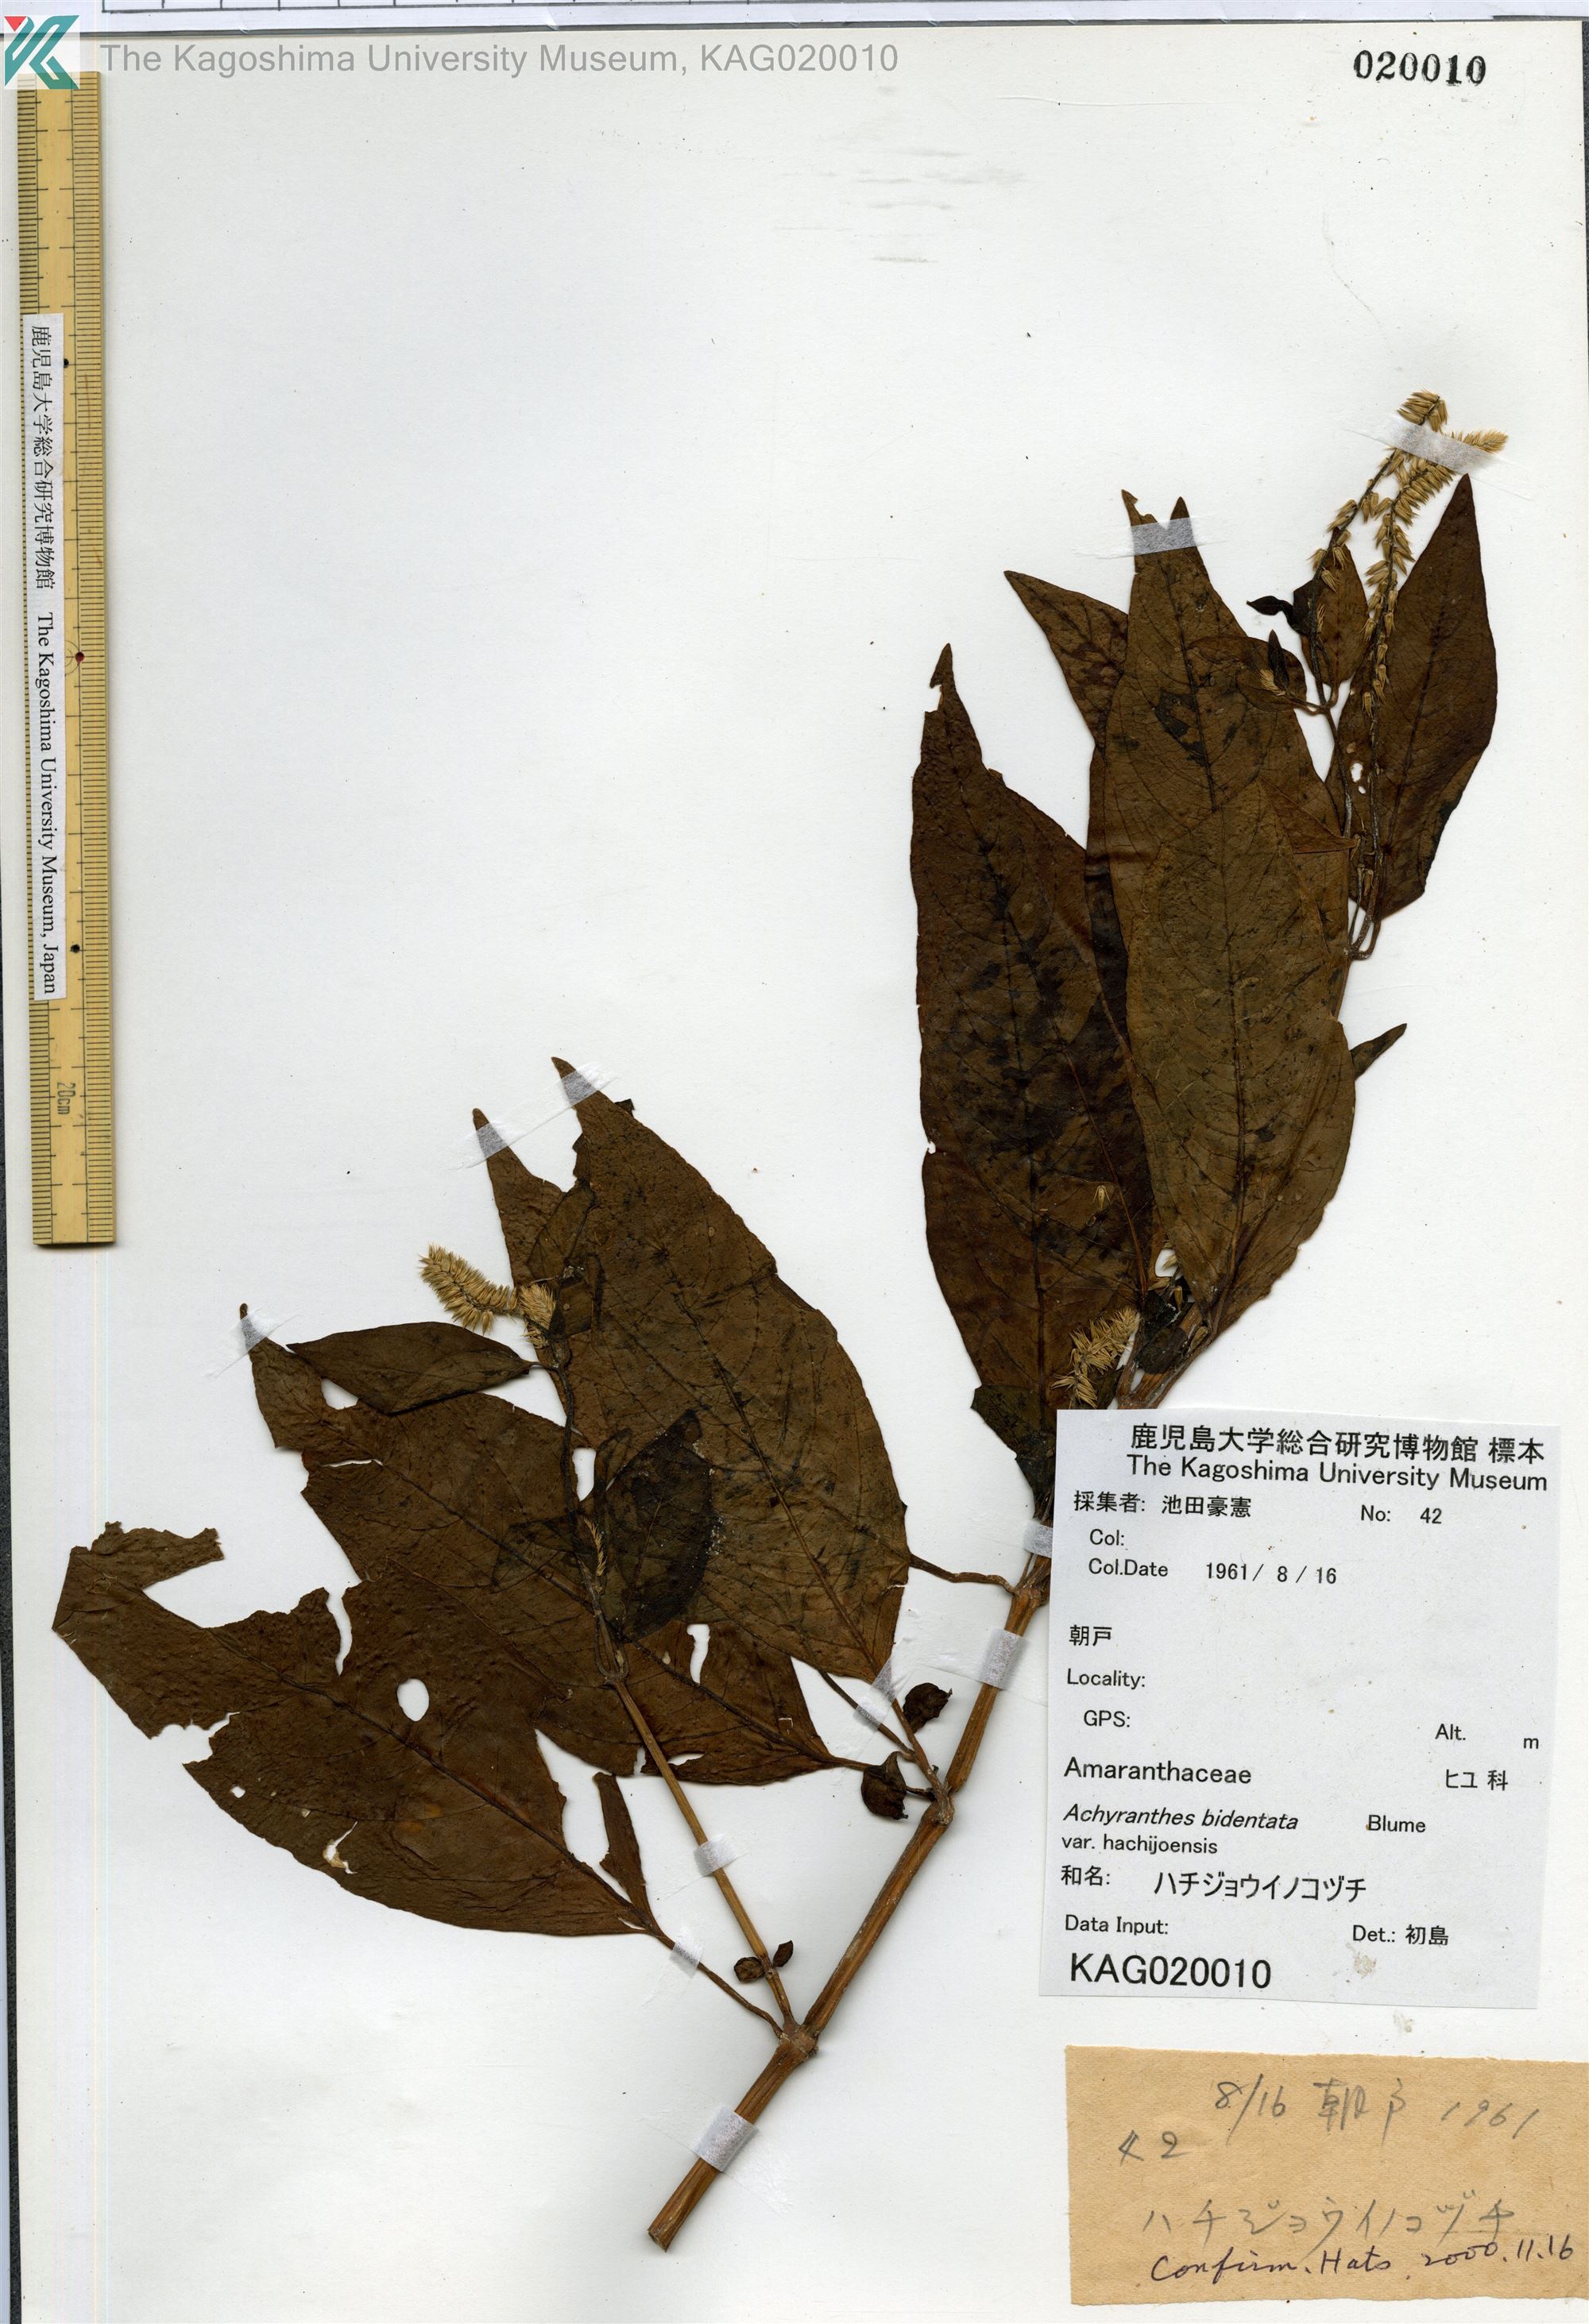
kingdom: Plantae
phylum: Tracheophyta
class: Magnoliopsida
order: Caryophyllales
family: Amaranthaceae
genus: Achyranthes
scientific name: Achyranthes bidentata
